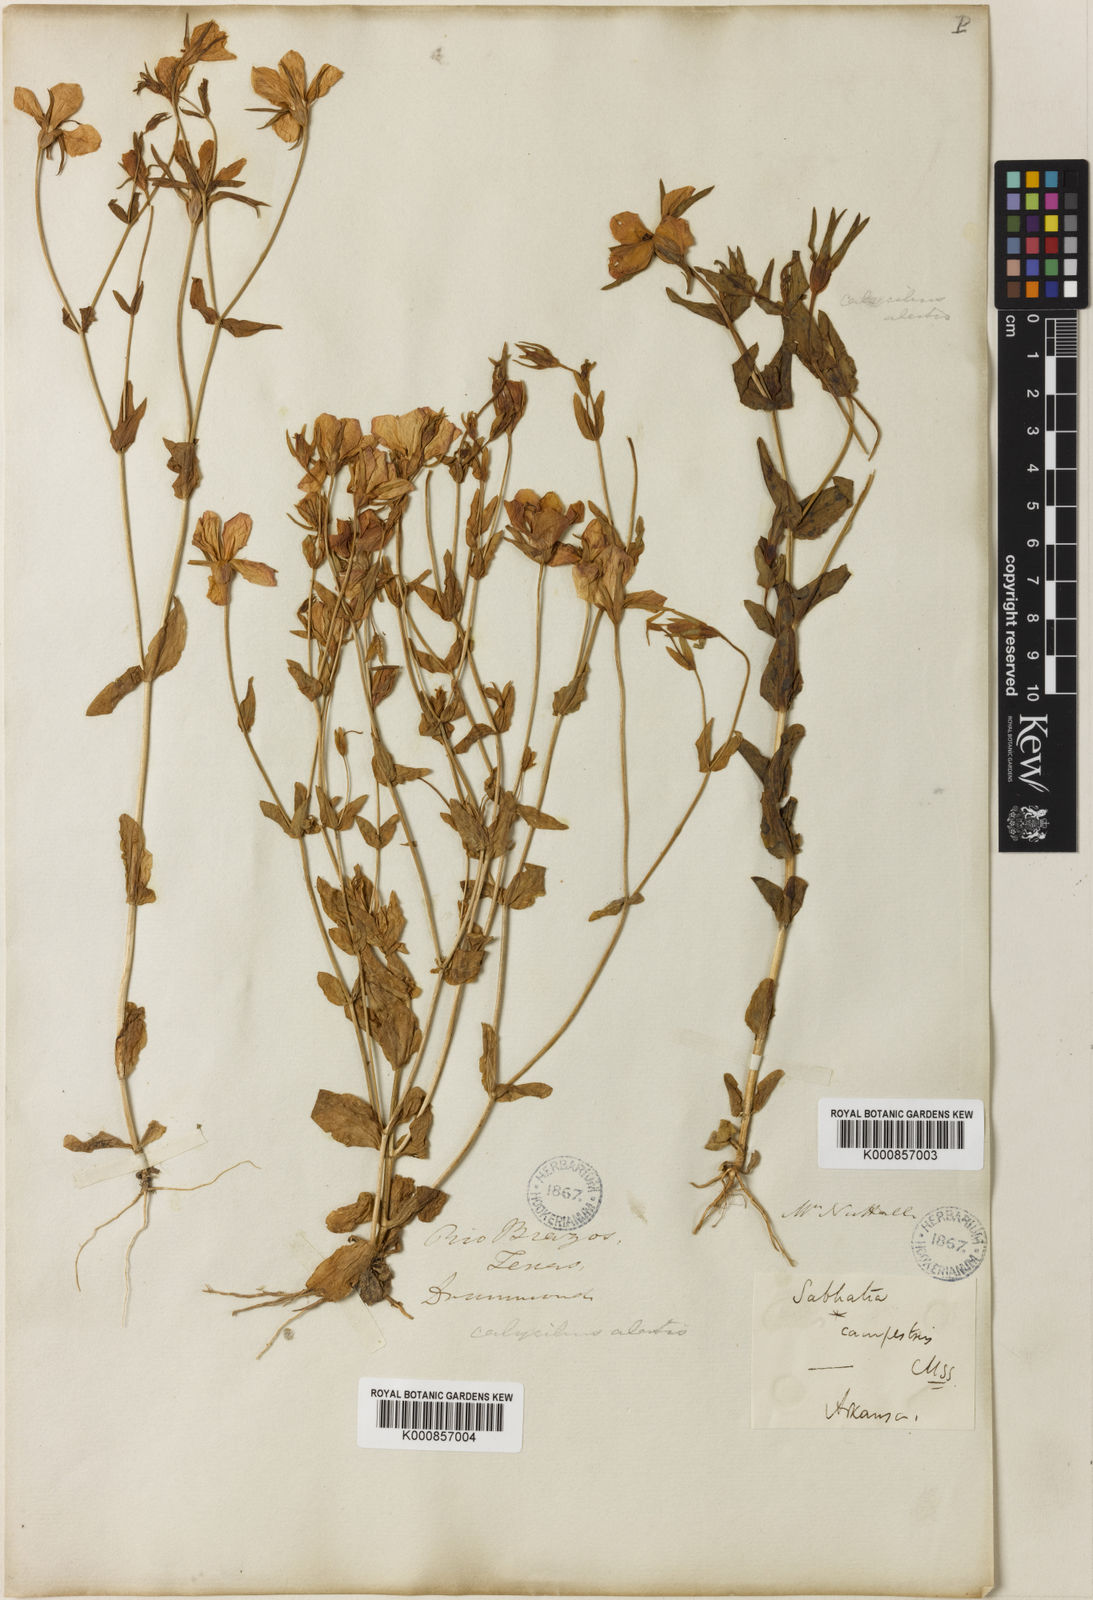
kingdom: Plantae
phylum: Tracheophyta
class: Magnoliopsida
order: Gentianales
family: Gentianaceae
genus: Sabatia
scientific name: Sabatia campestris
